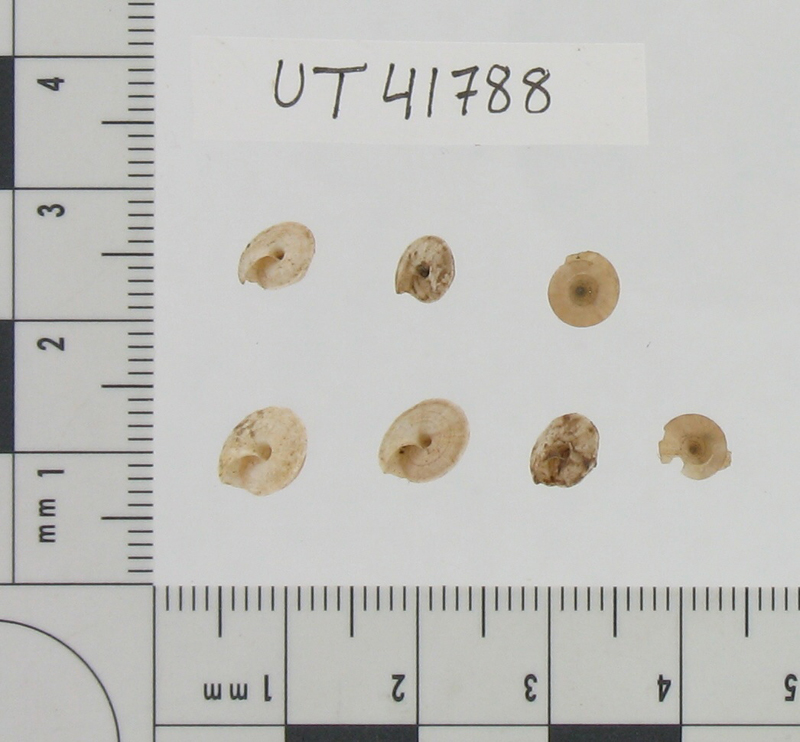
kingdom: Animalia
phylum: Mollusca
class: Gastropoda
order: Stylommatophora
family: Helicidae
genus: Helix
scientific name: Helix cincta
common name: Greek banded snail
